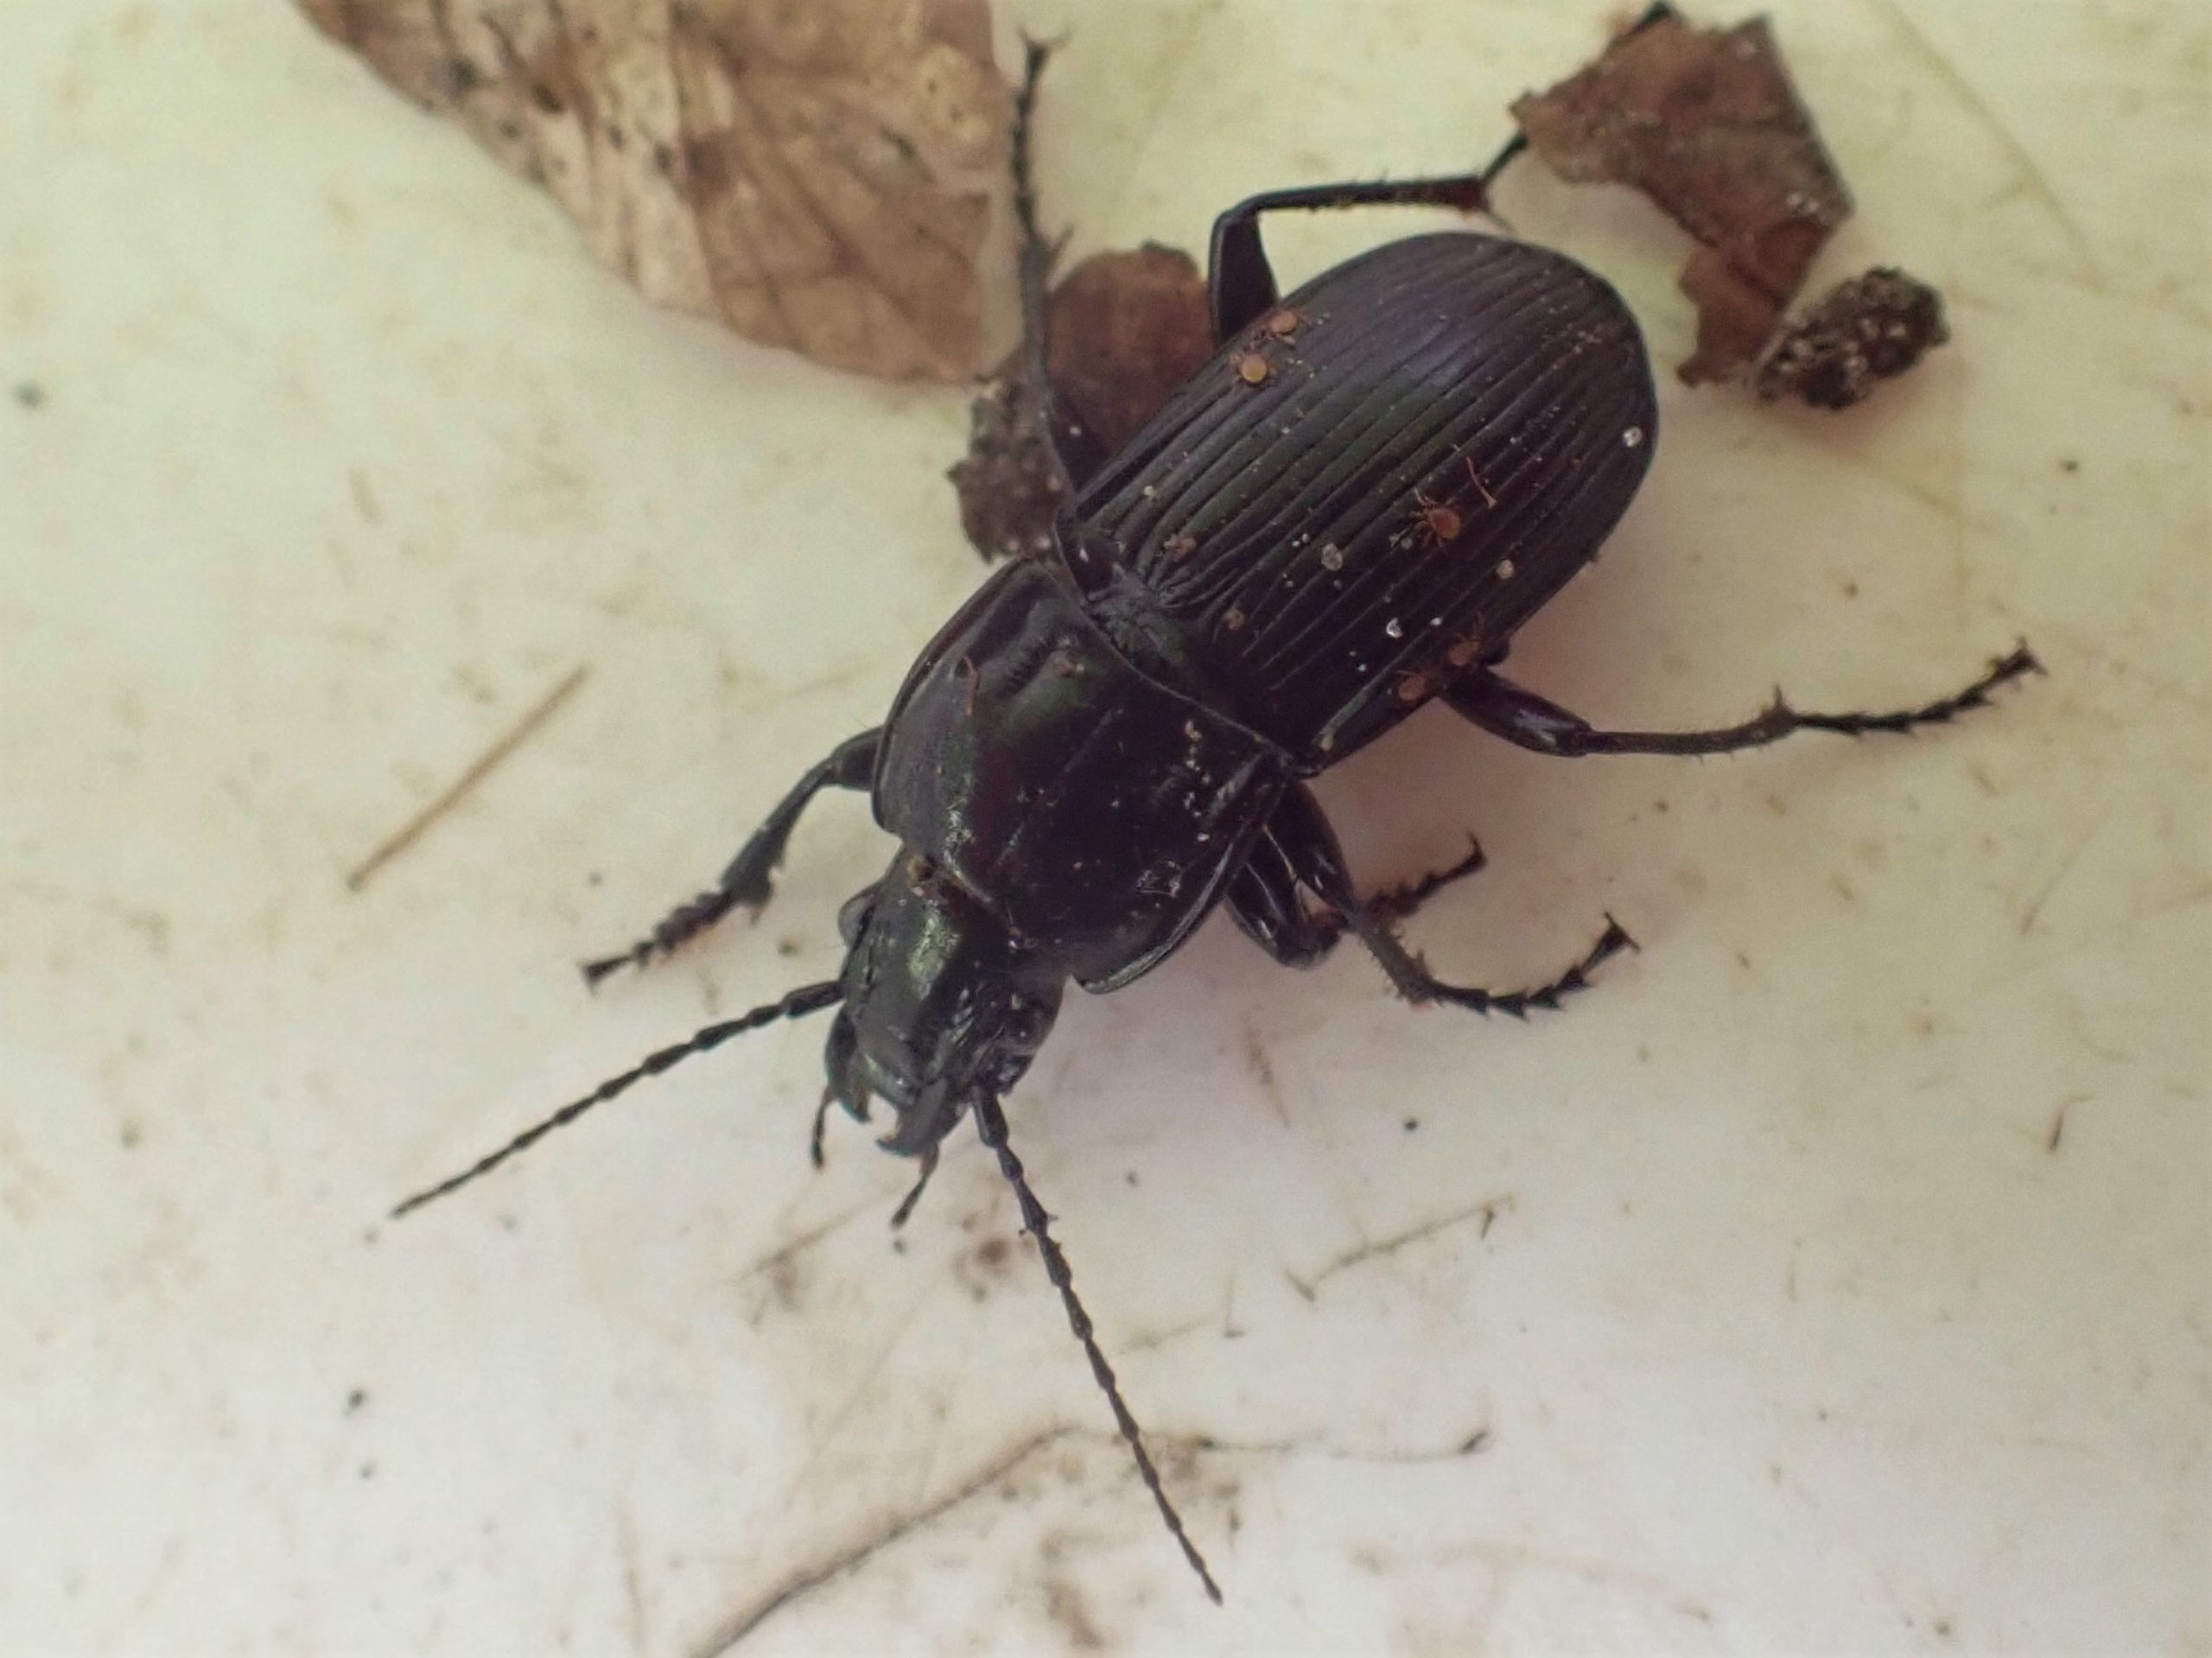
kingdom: Animalia
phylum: Arthropoda
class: Insecta
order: Coleoptera
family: Carabidae
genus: Abax
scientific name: Abax parallelepipedus
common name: Bred muldløber
